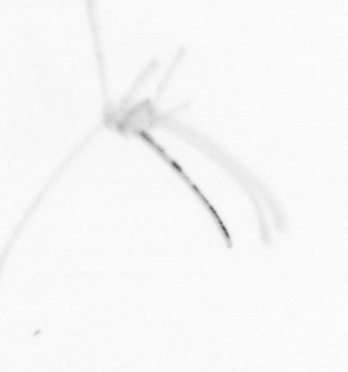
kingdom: Animalia
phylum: Cnidaria
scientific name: Cnidaria
